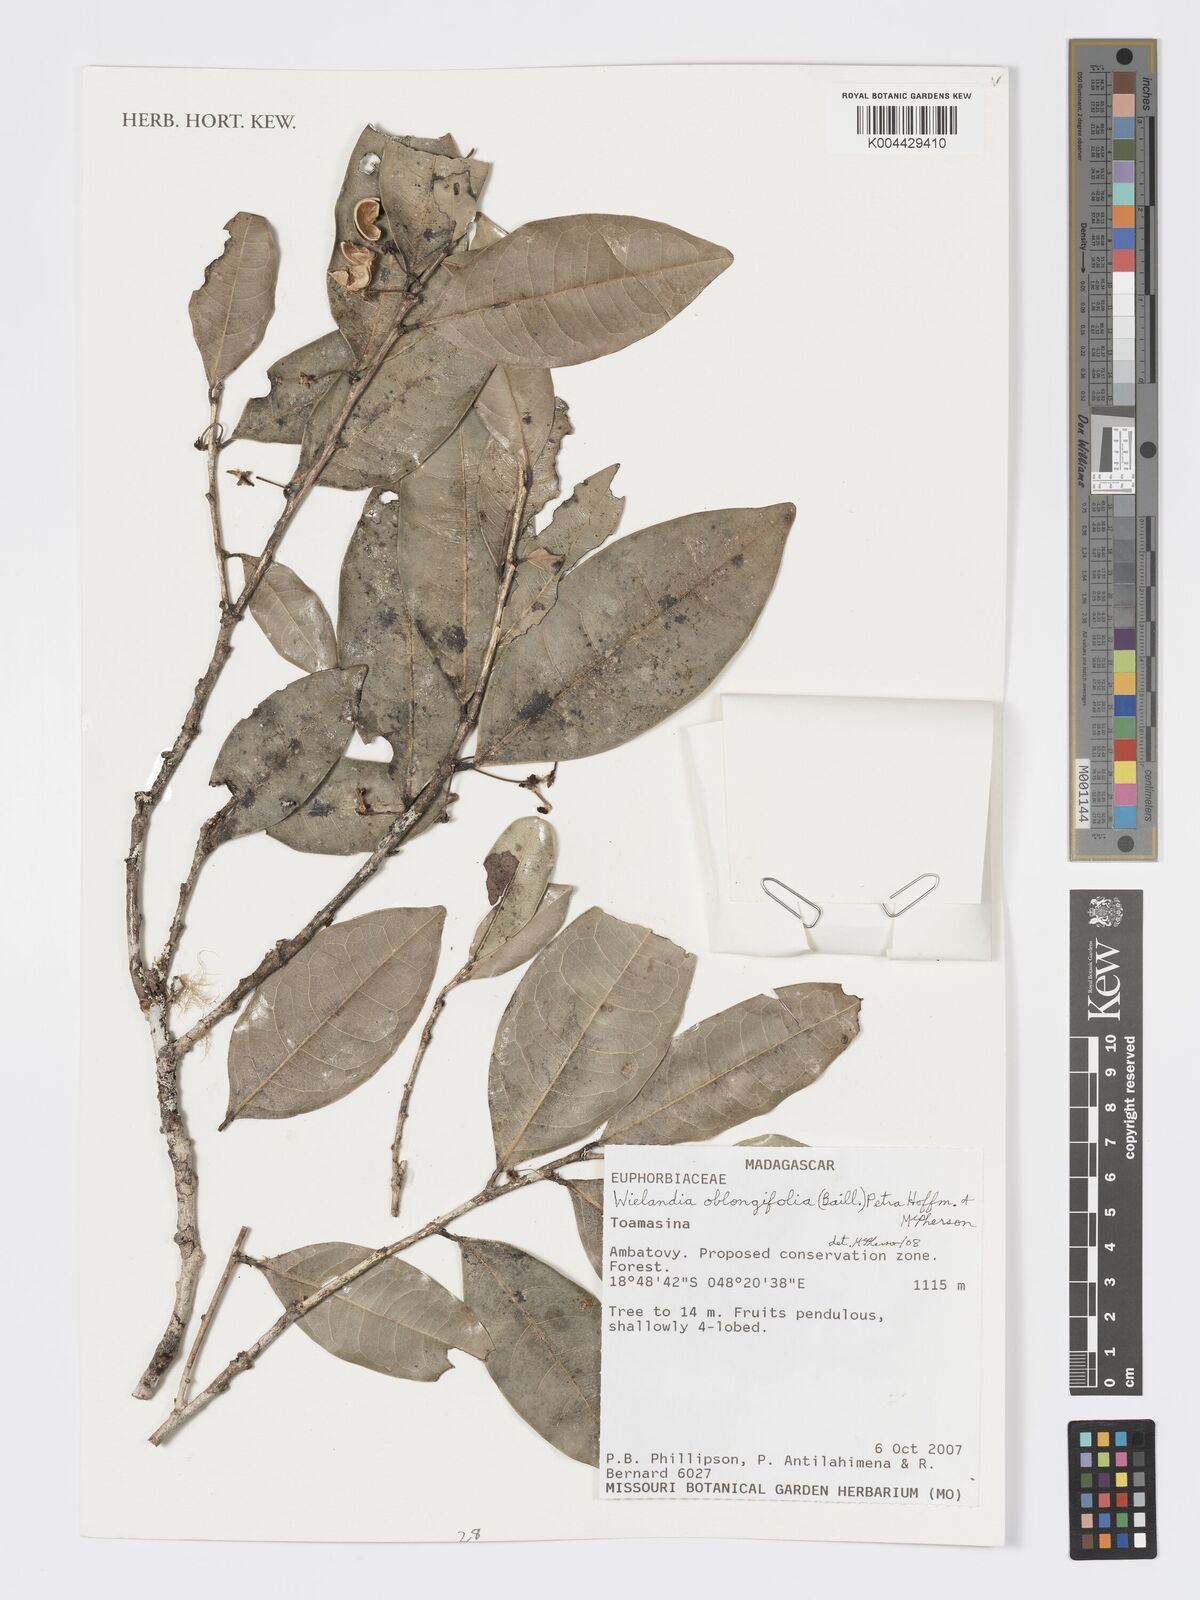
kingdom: Plantae
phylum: Tracheophyta
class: Magnoliopsida
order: Malpighiales
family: Phyllanthaceae
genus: Wielandia
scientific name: Wielandia oblongifolia
